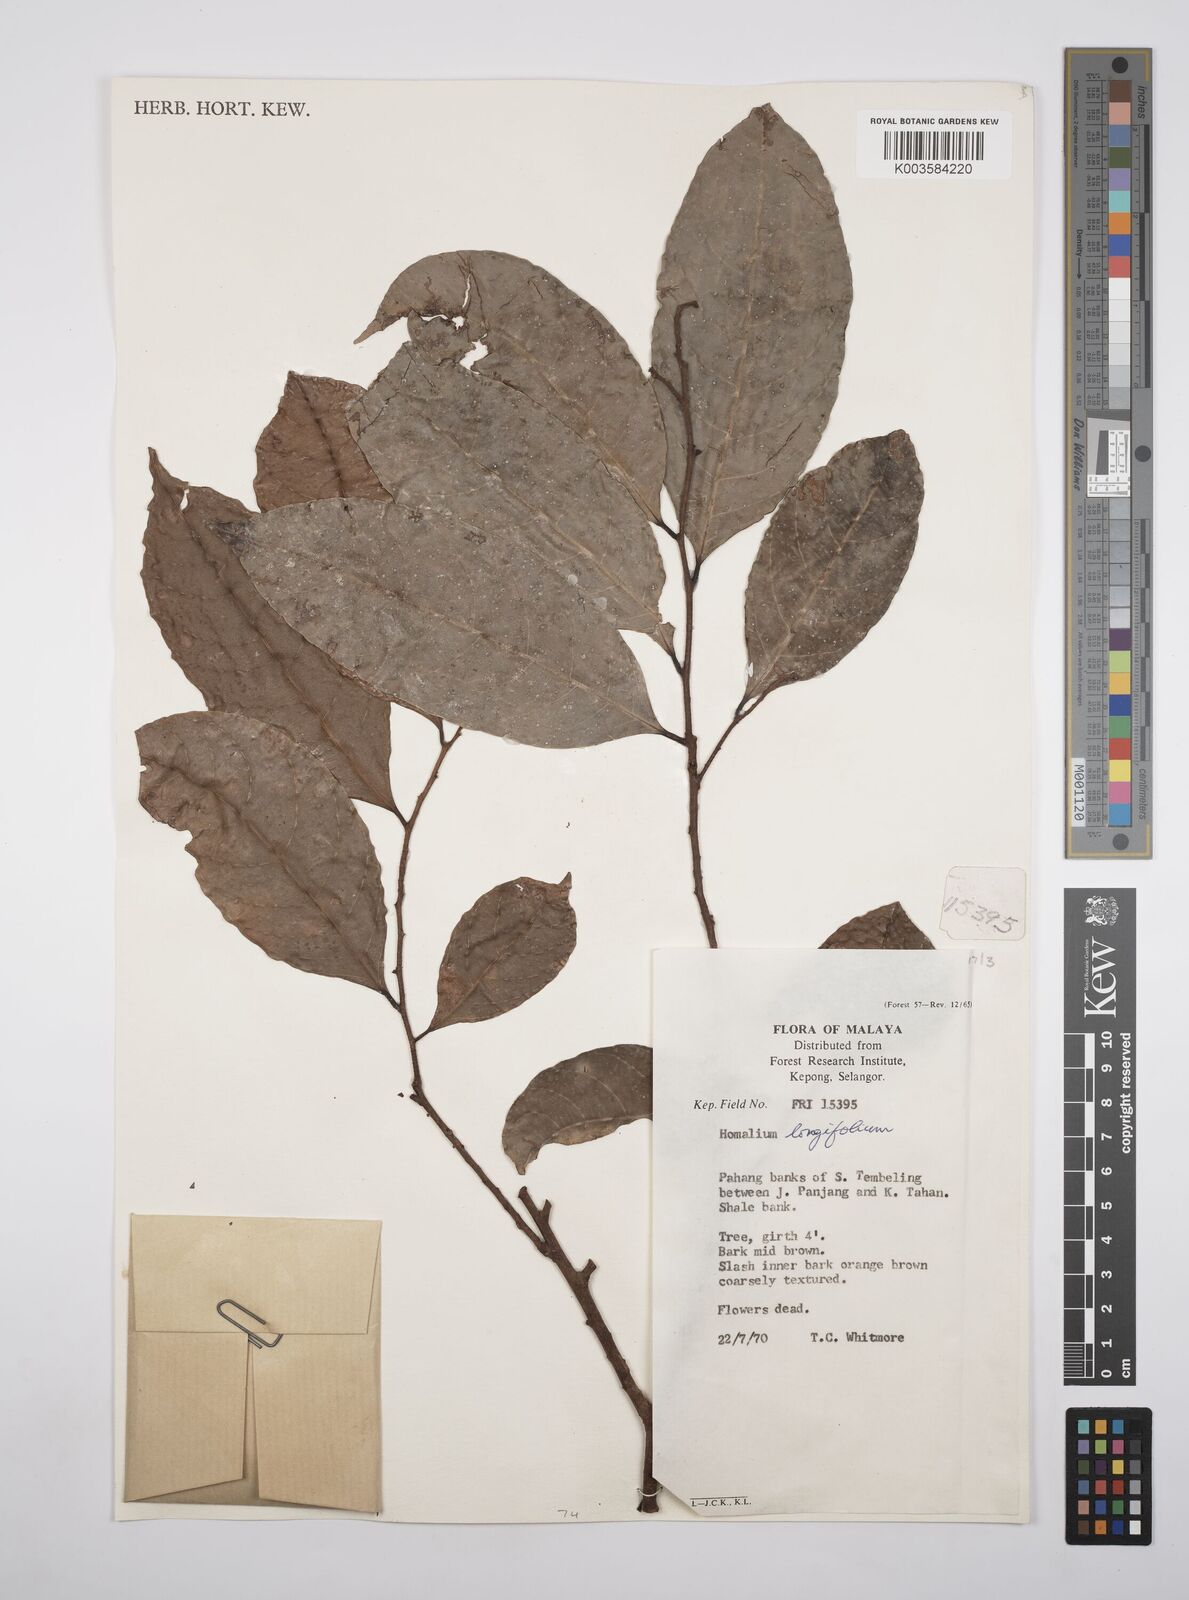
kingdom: Plantae
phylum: Tracheophyta
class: Magnoliopsida
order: Malpighiales
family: Salicaceae
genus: Homalium
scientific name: Homalium longifolium
